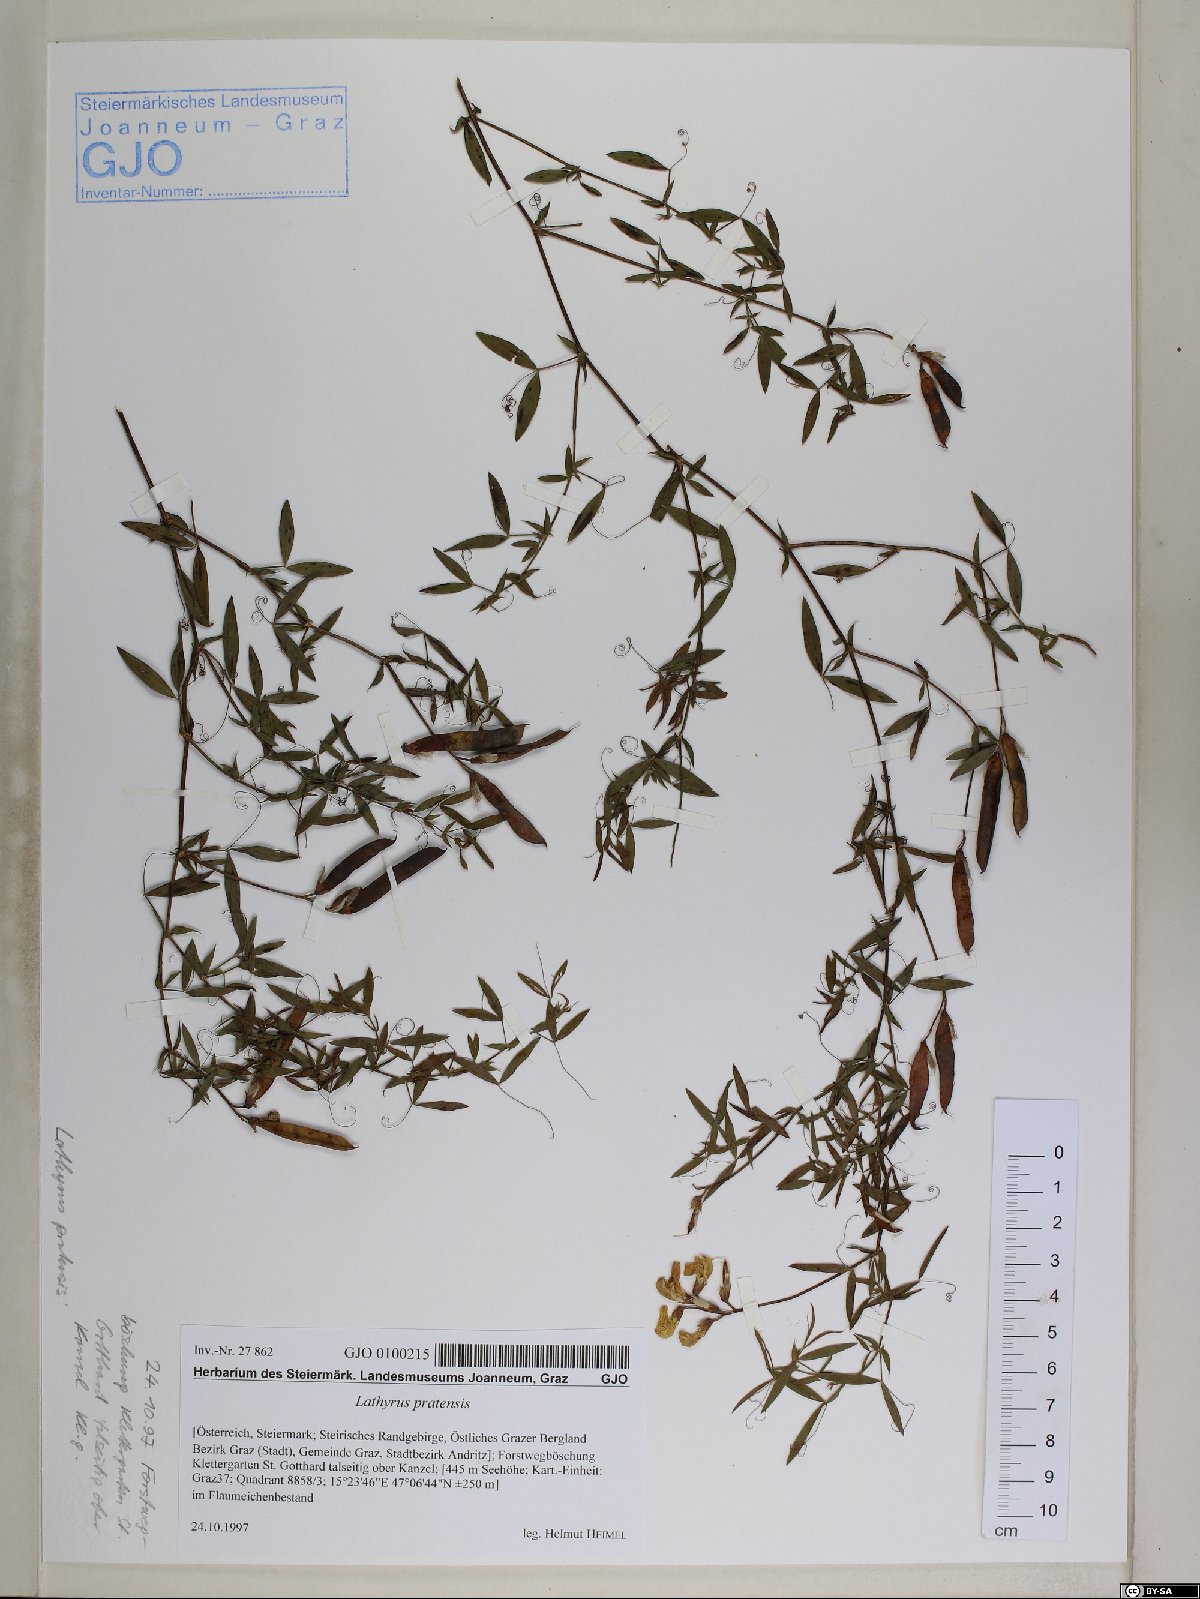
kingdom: Plantae
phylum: Tracheophyta
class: Magnoliopsida
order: Fabales
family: Fabaceae
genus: Lathyrus
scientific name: Lathyrus pratensis
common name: Meadow vetchling
